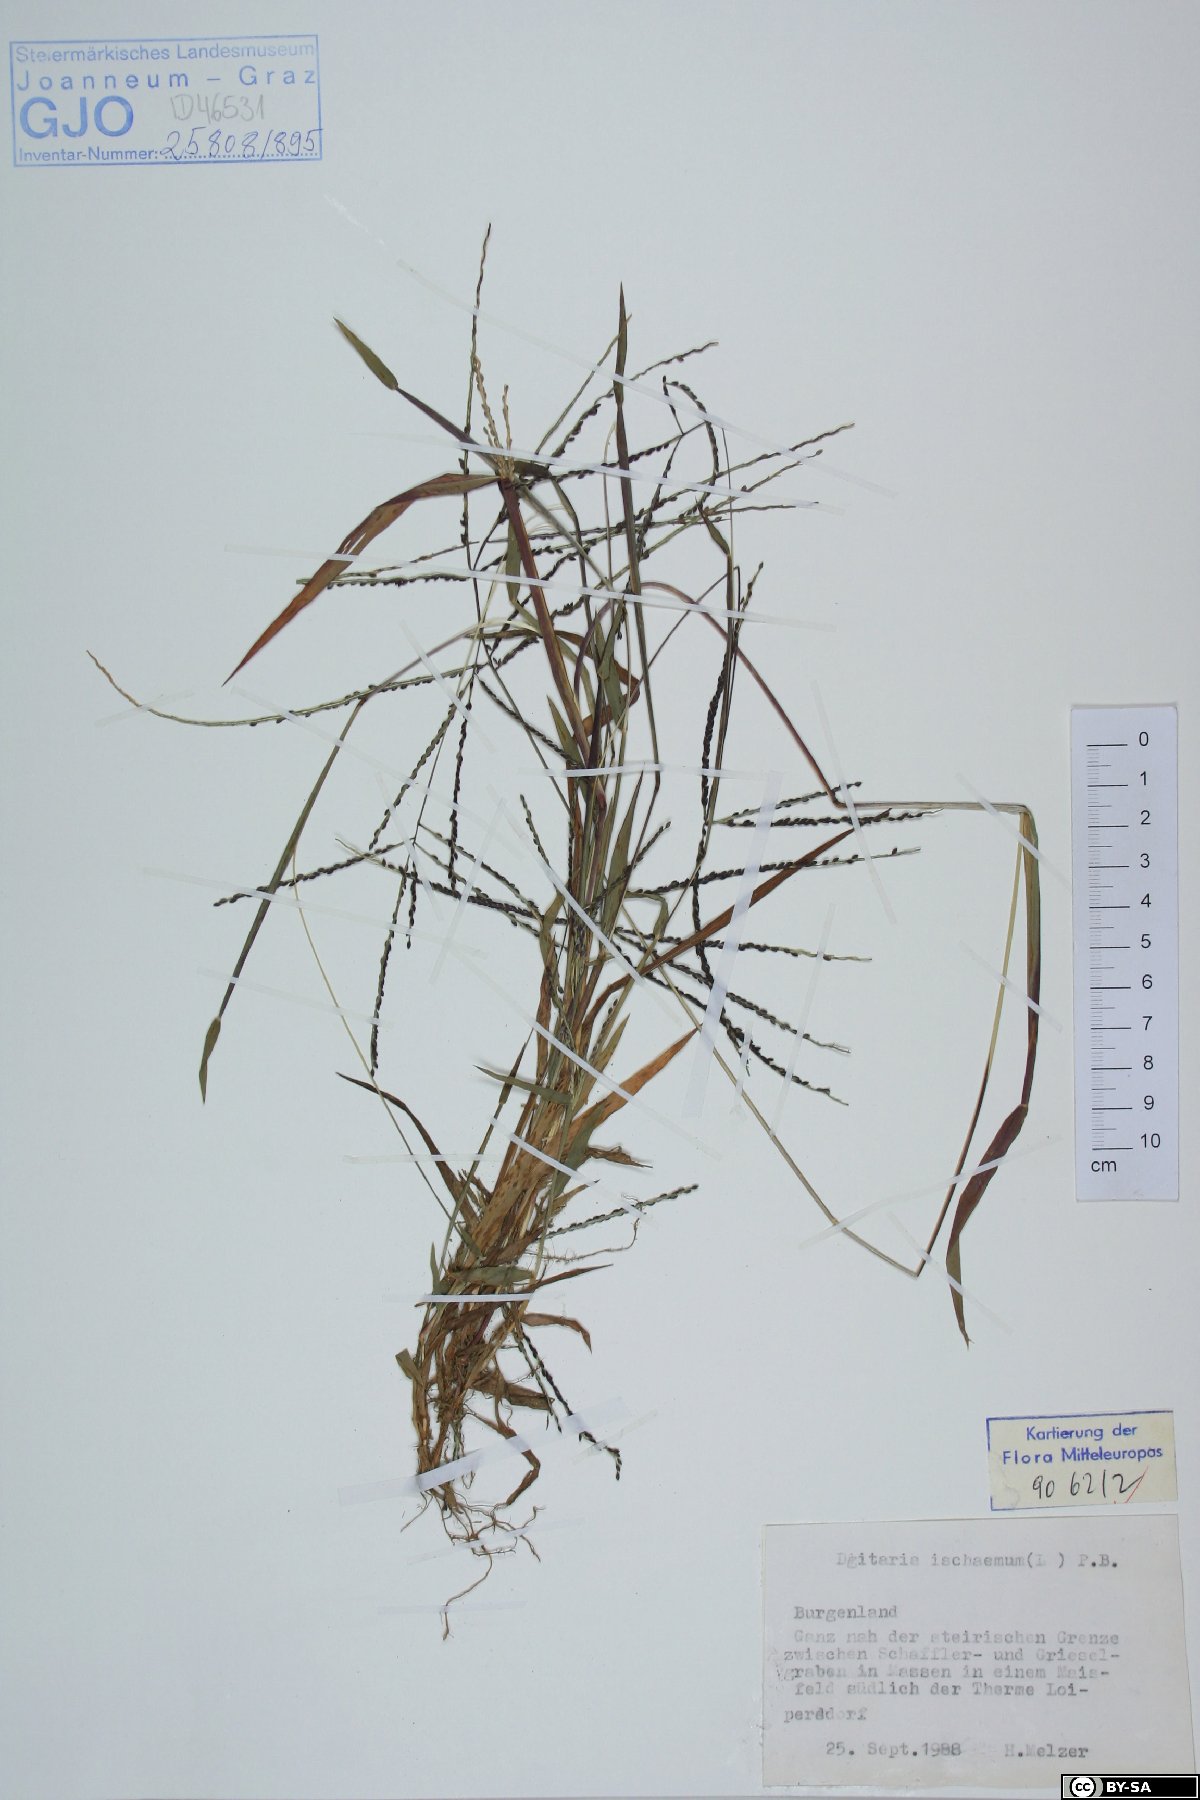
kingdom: Plantae
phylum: Tracheophyta
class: Liliopsida
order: Poales
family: Poaceae
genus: Digitaria
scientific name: Digitaria ischaemum
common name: Smooth crabgrass
